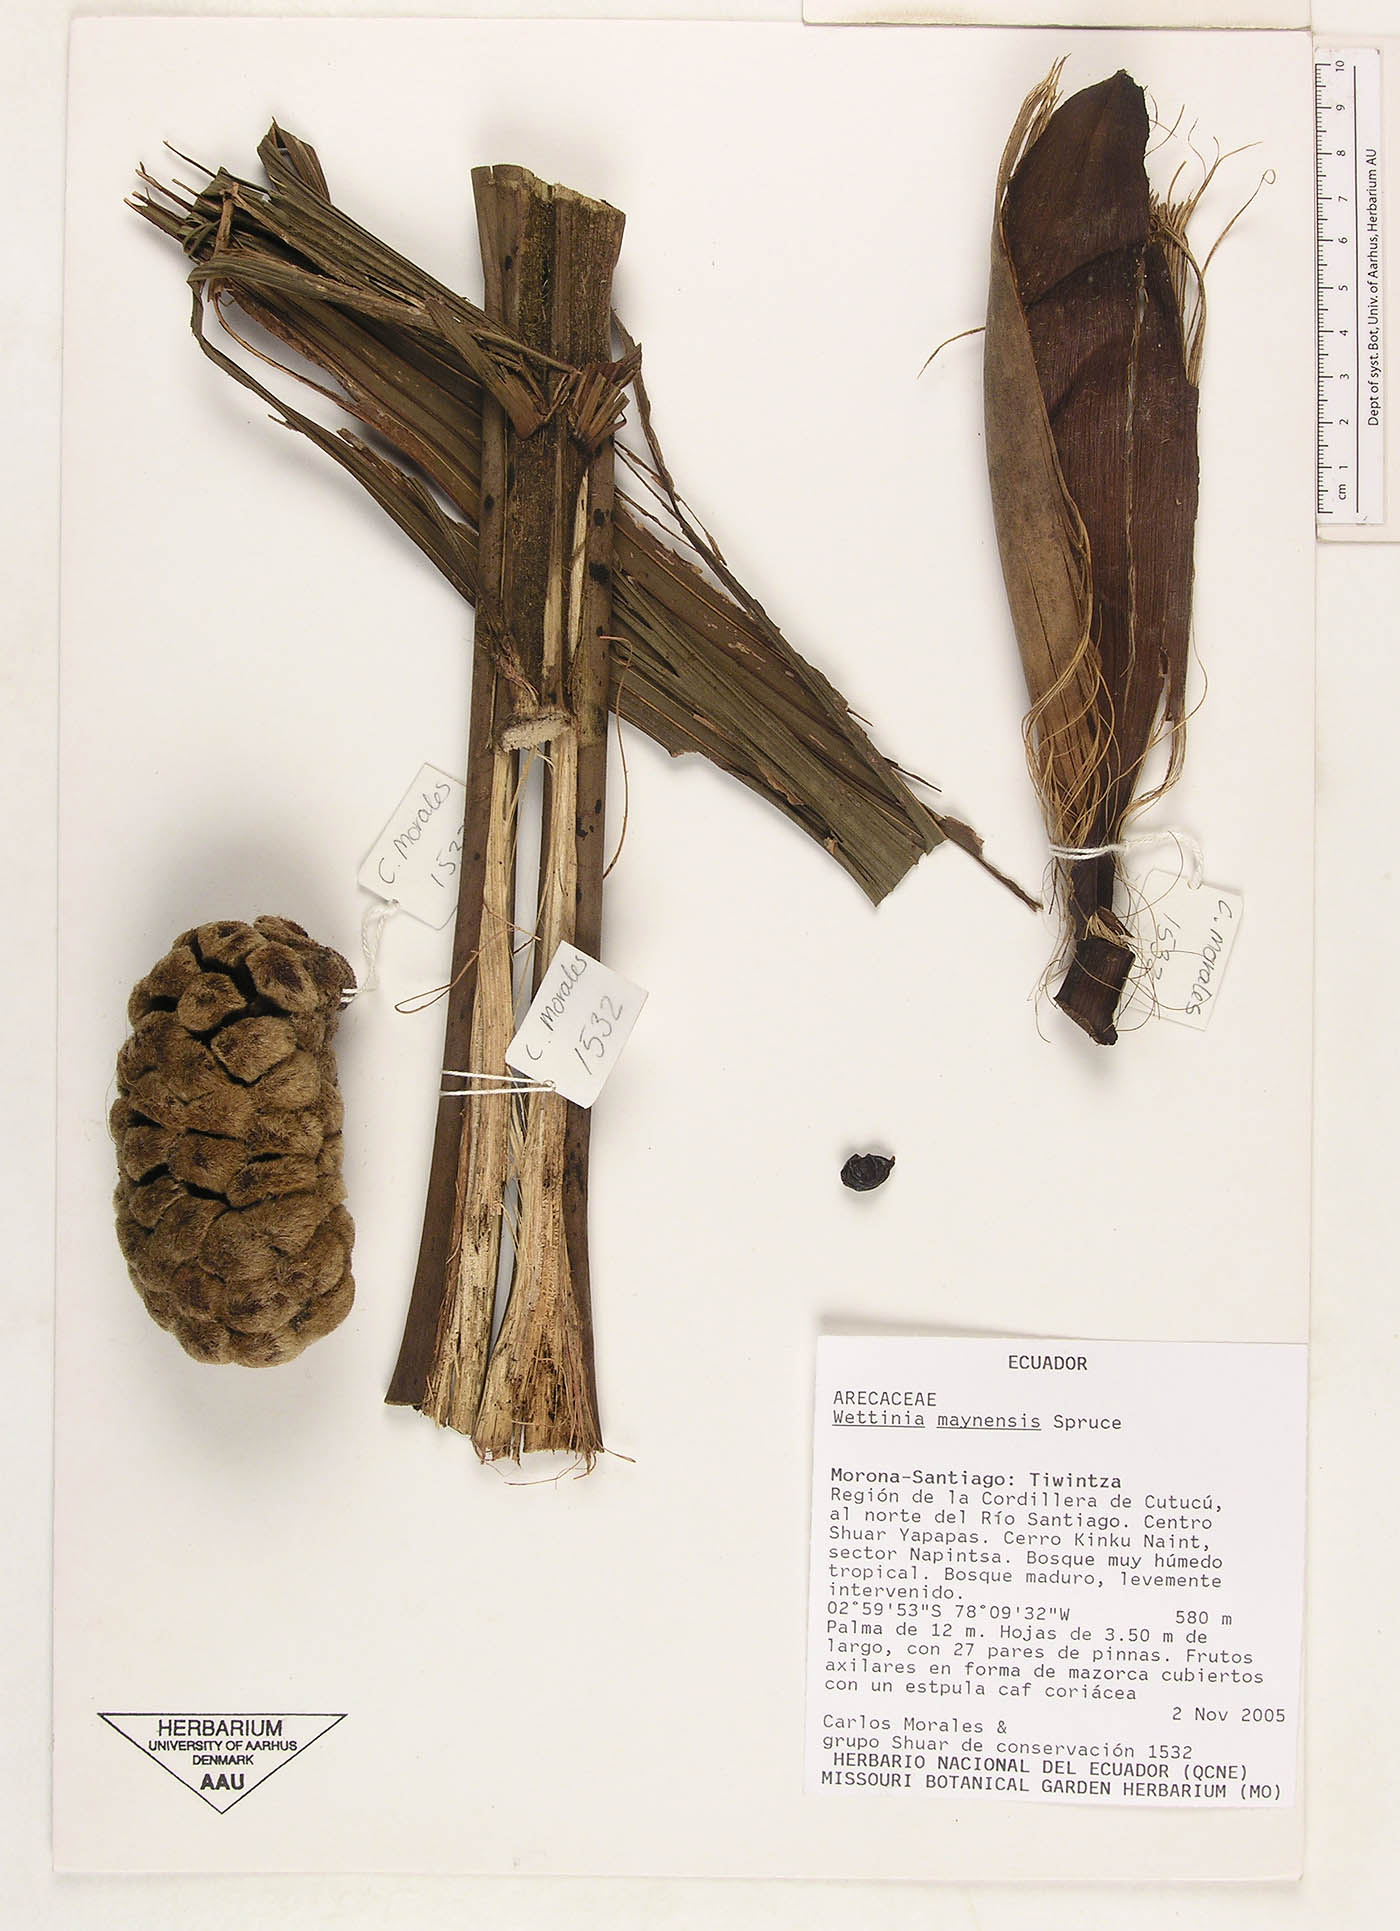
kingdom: Plantae
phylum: Tracheophyta
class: Liliopsida
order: Arecales
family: Arecaceae
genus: Wettinia
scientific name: Wettinia maynensis
